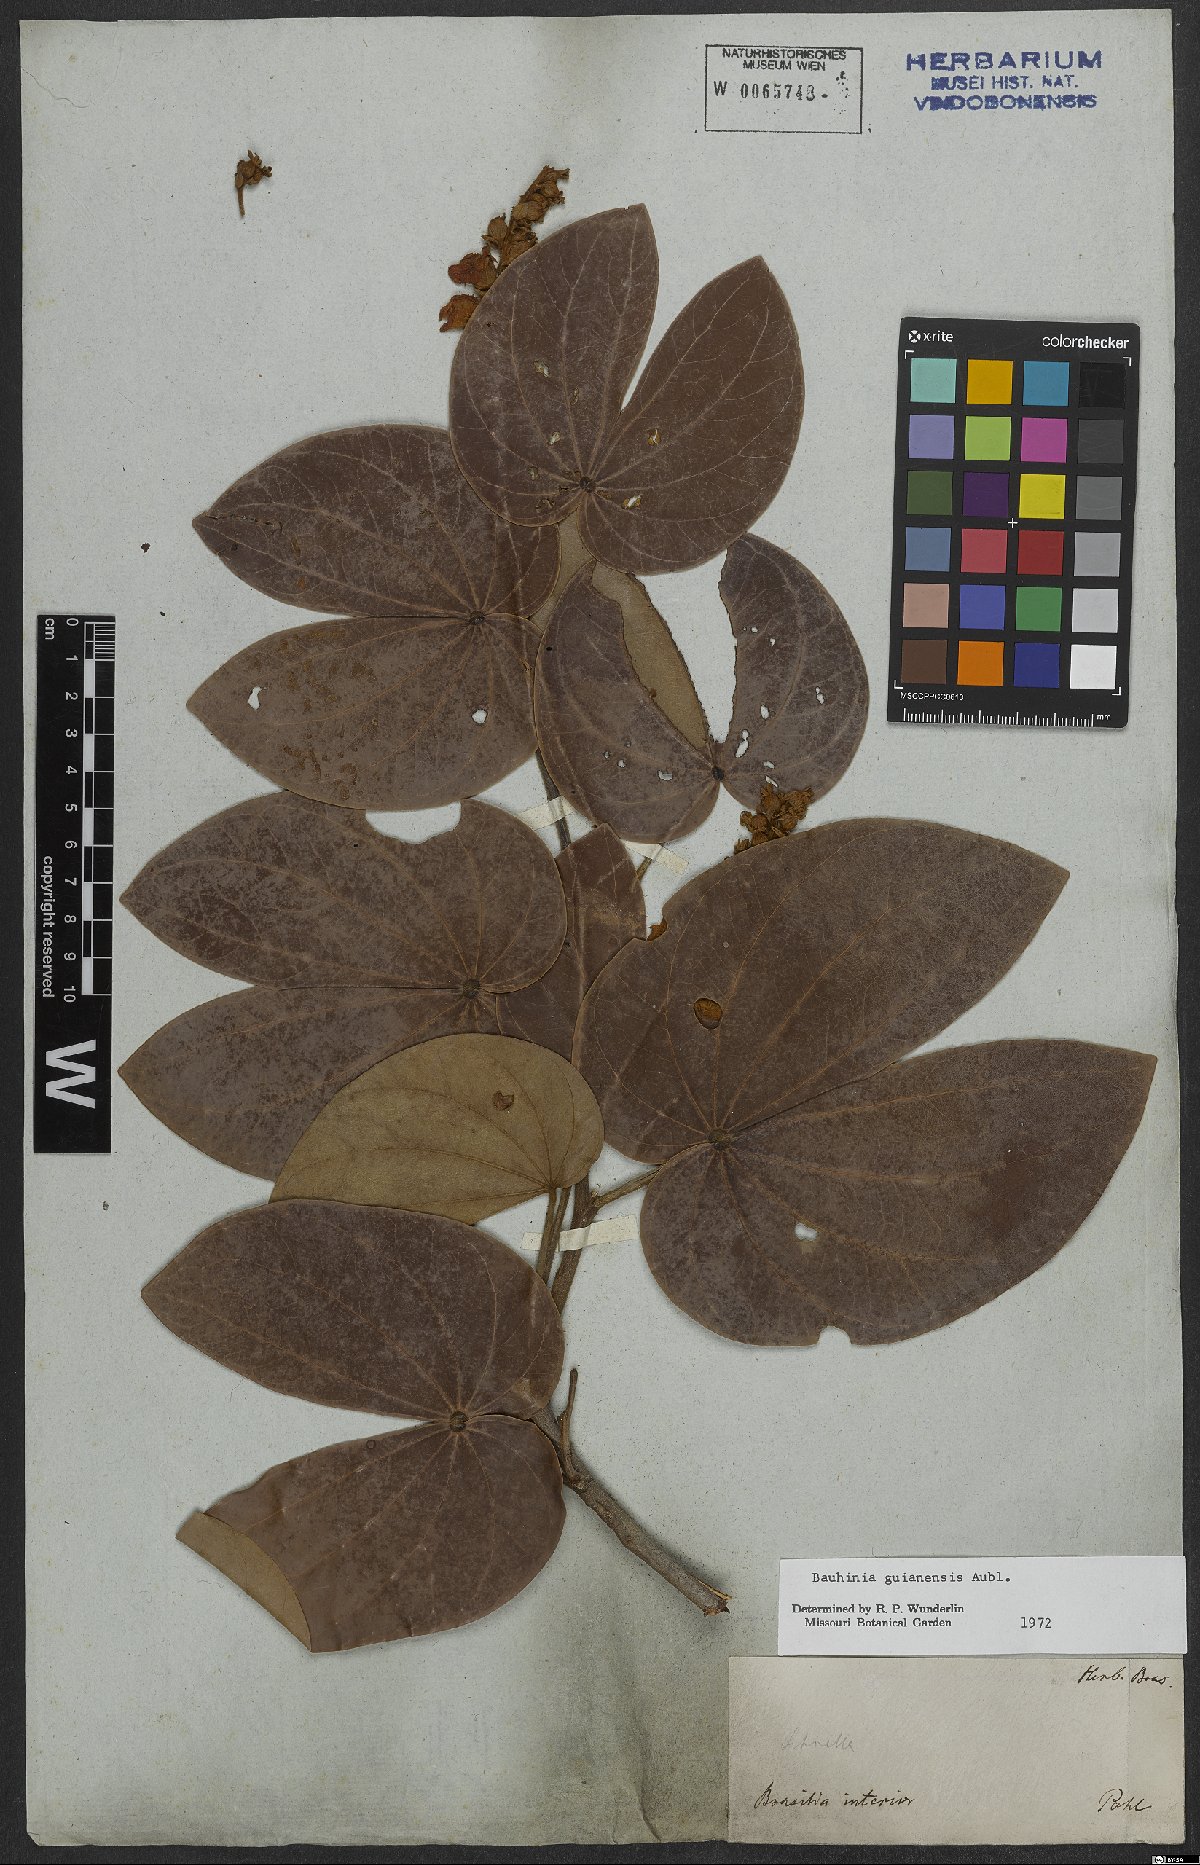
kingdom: Plantae
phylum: Tracheophyta
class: Magnoliopsida
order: Fabales
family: Fabaceae
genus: Schnella
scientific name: Schnella guianensis
